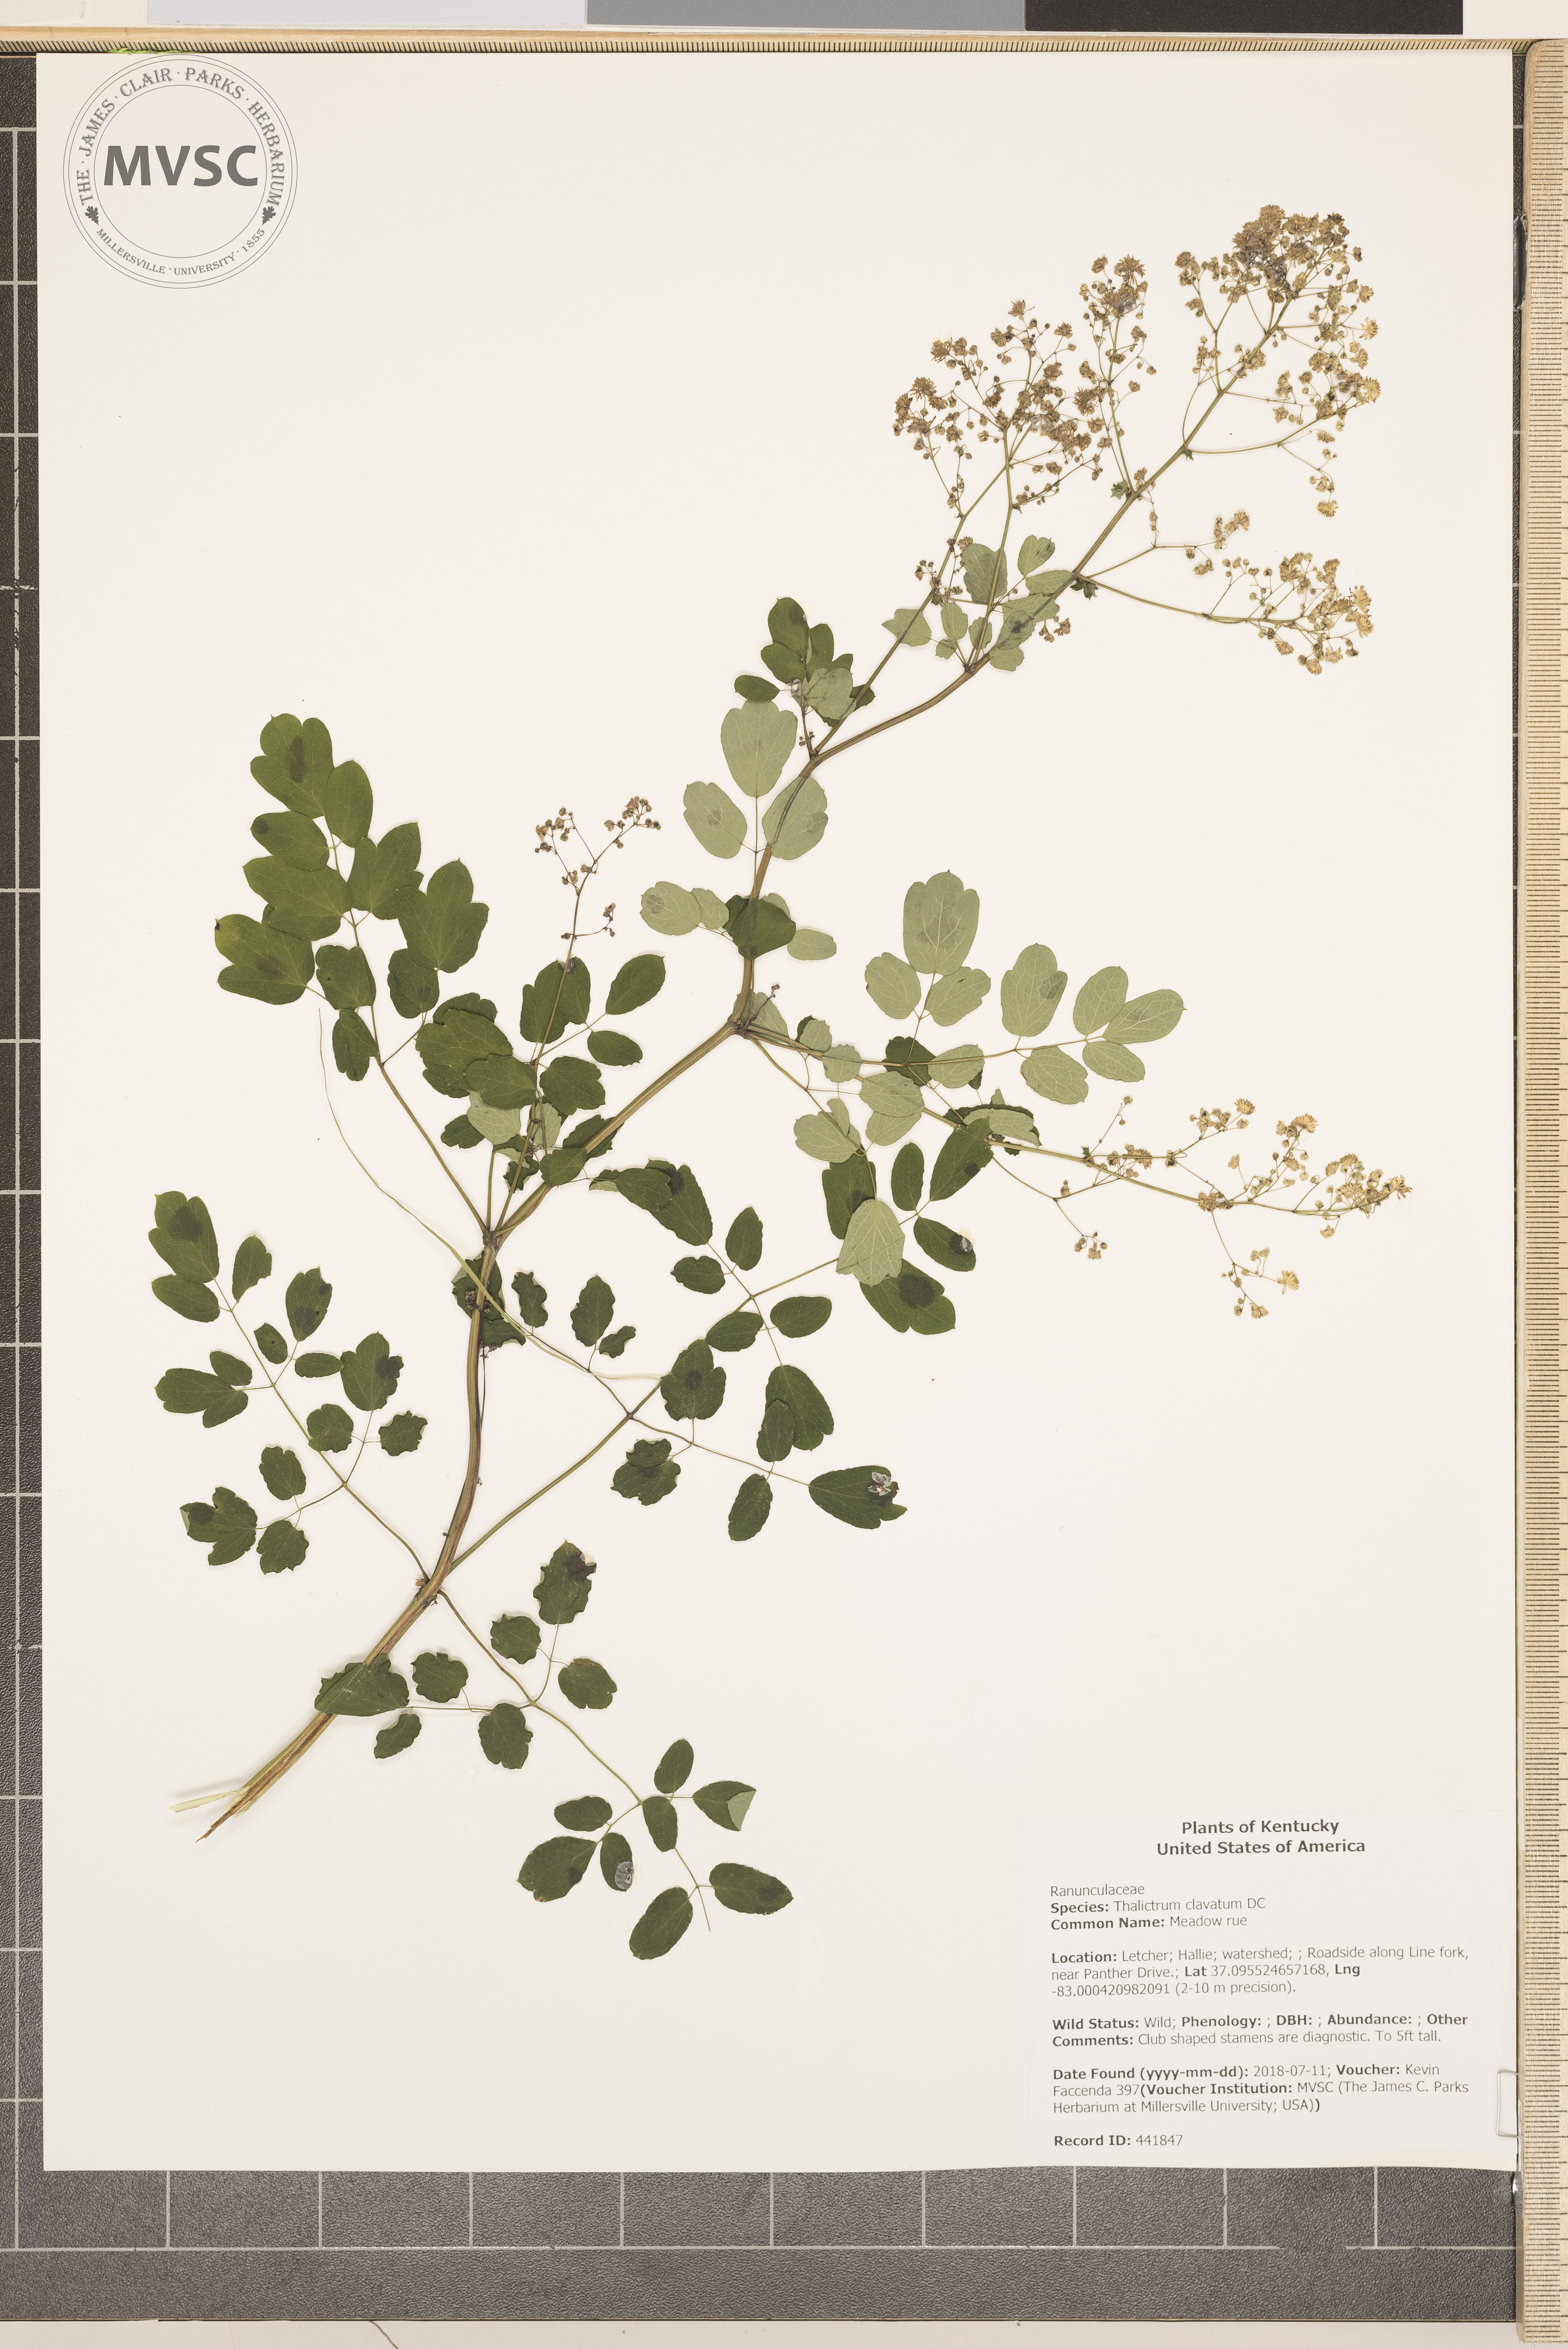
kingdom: Plantae
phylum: Tracheophyta
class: Magnoliopsida
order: Ranunculales
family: Ranunculaceae
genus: Thalictrum
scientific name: Thalictrum clavatum
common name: Meadow rue
